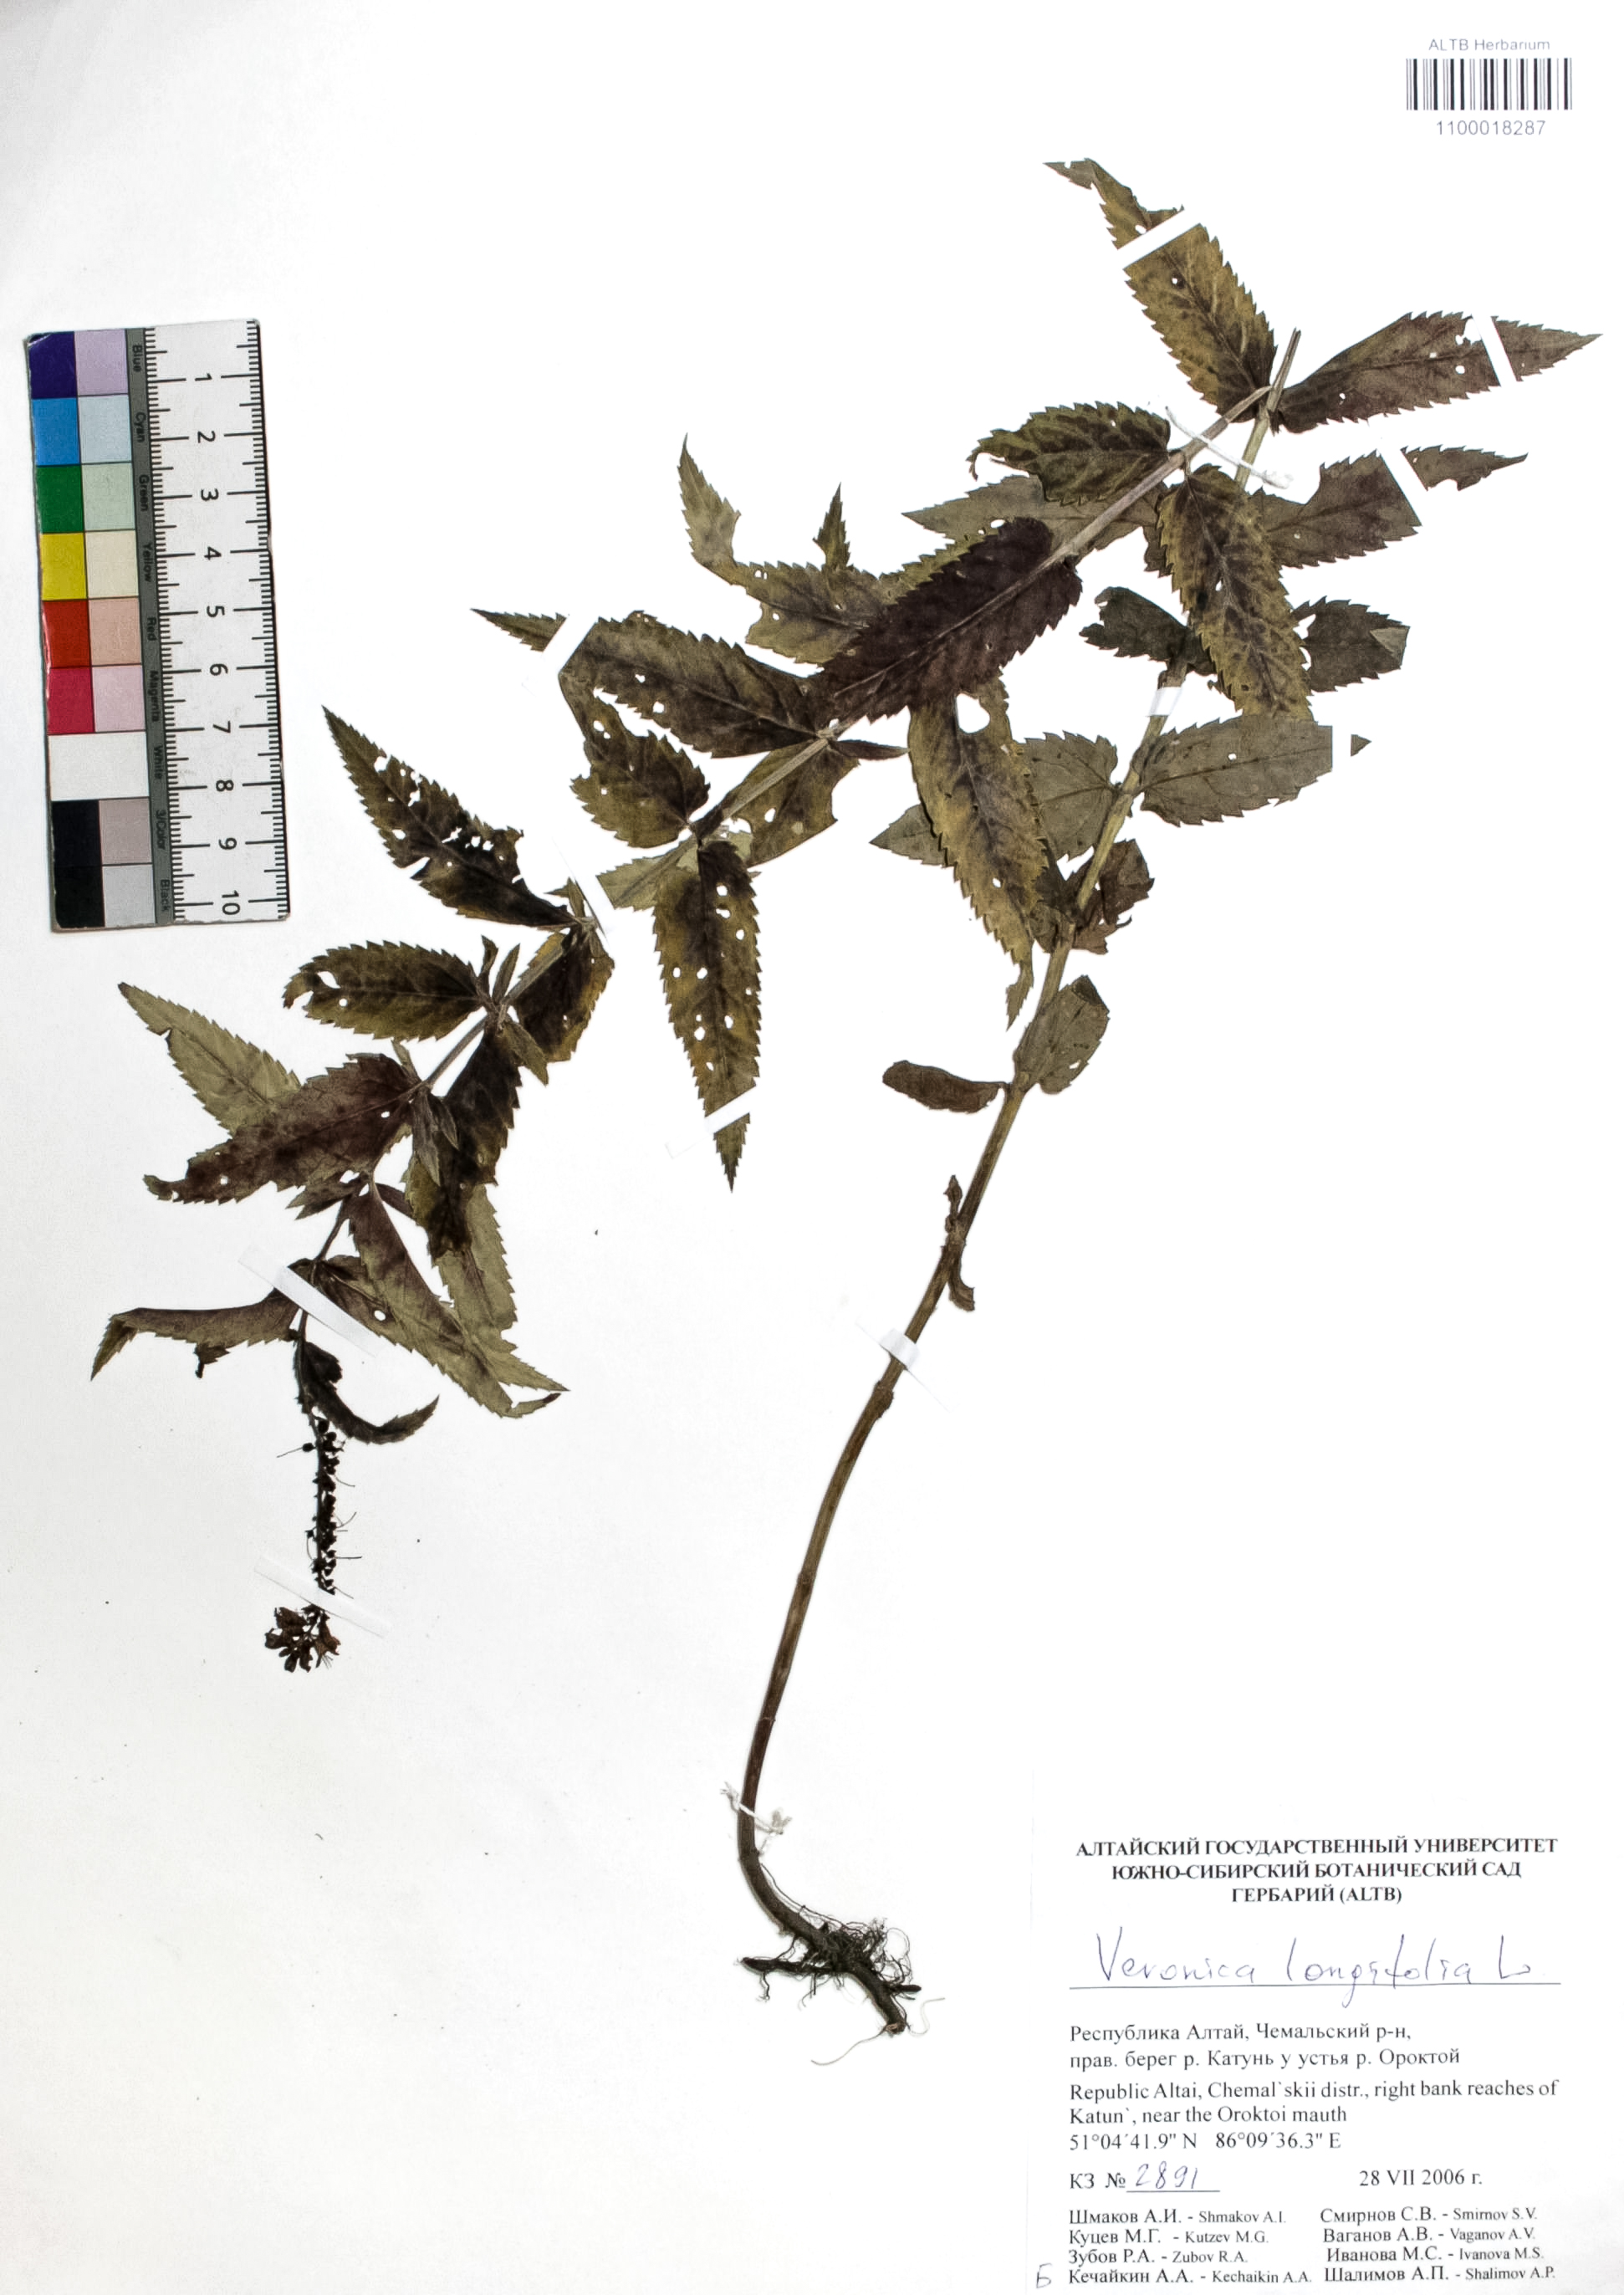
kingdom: Plantae
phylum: Tracheophyta
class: Magnoliopsida
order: Lamiales
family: Plantaginaceae
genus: Veronica
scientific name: Veronica longifolia
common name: Garden speedwell
